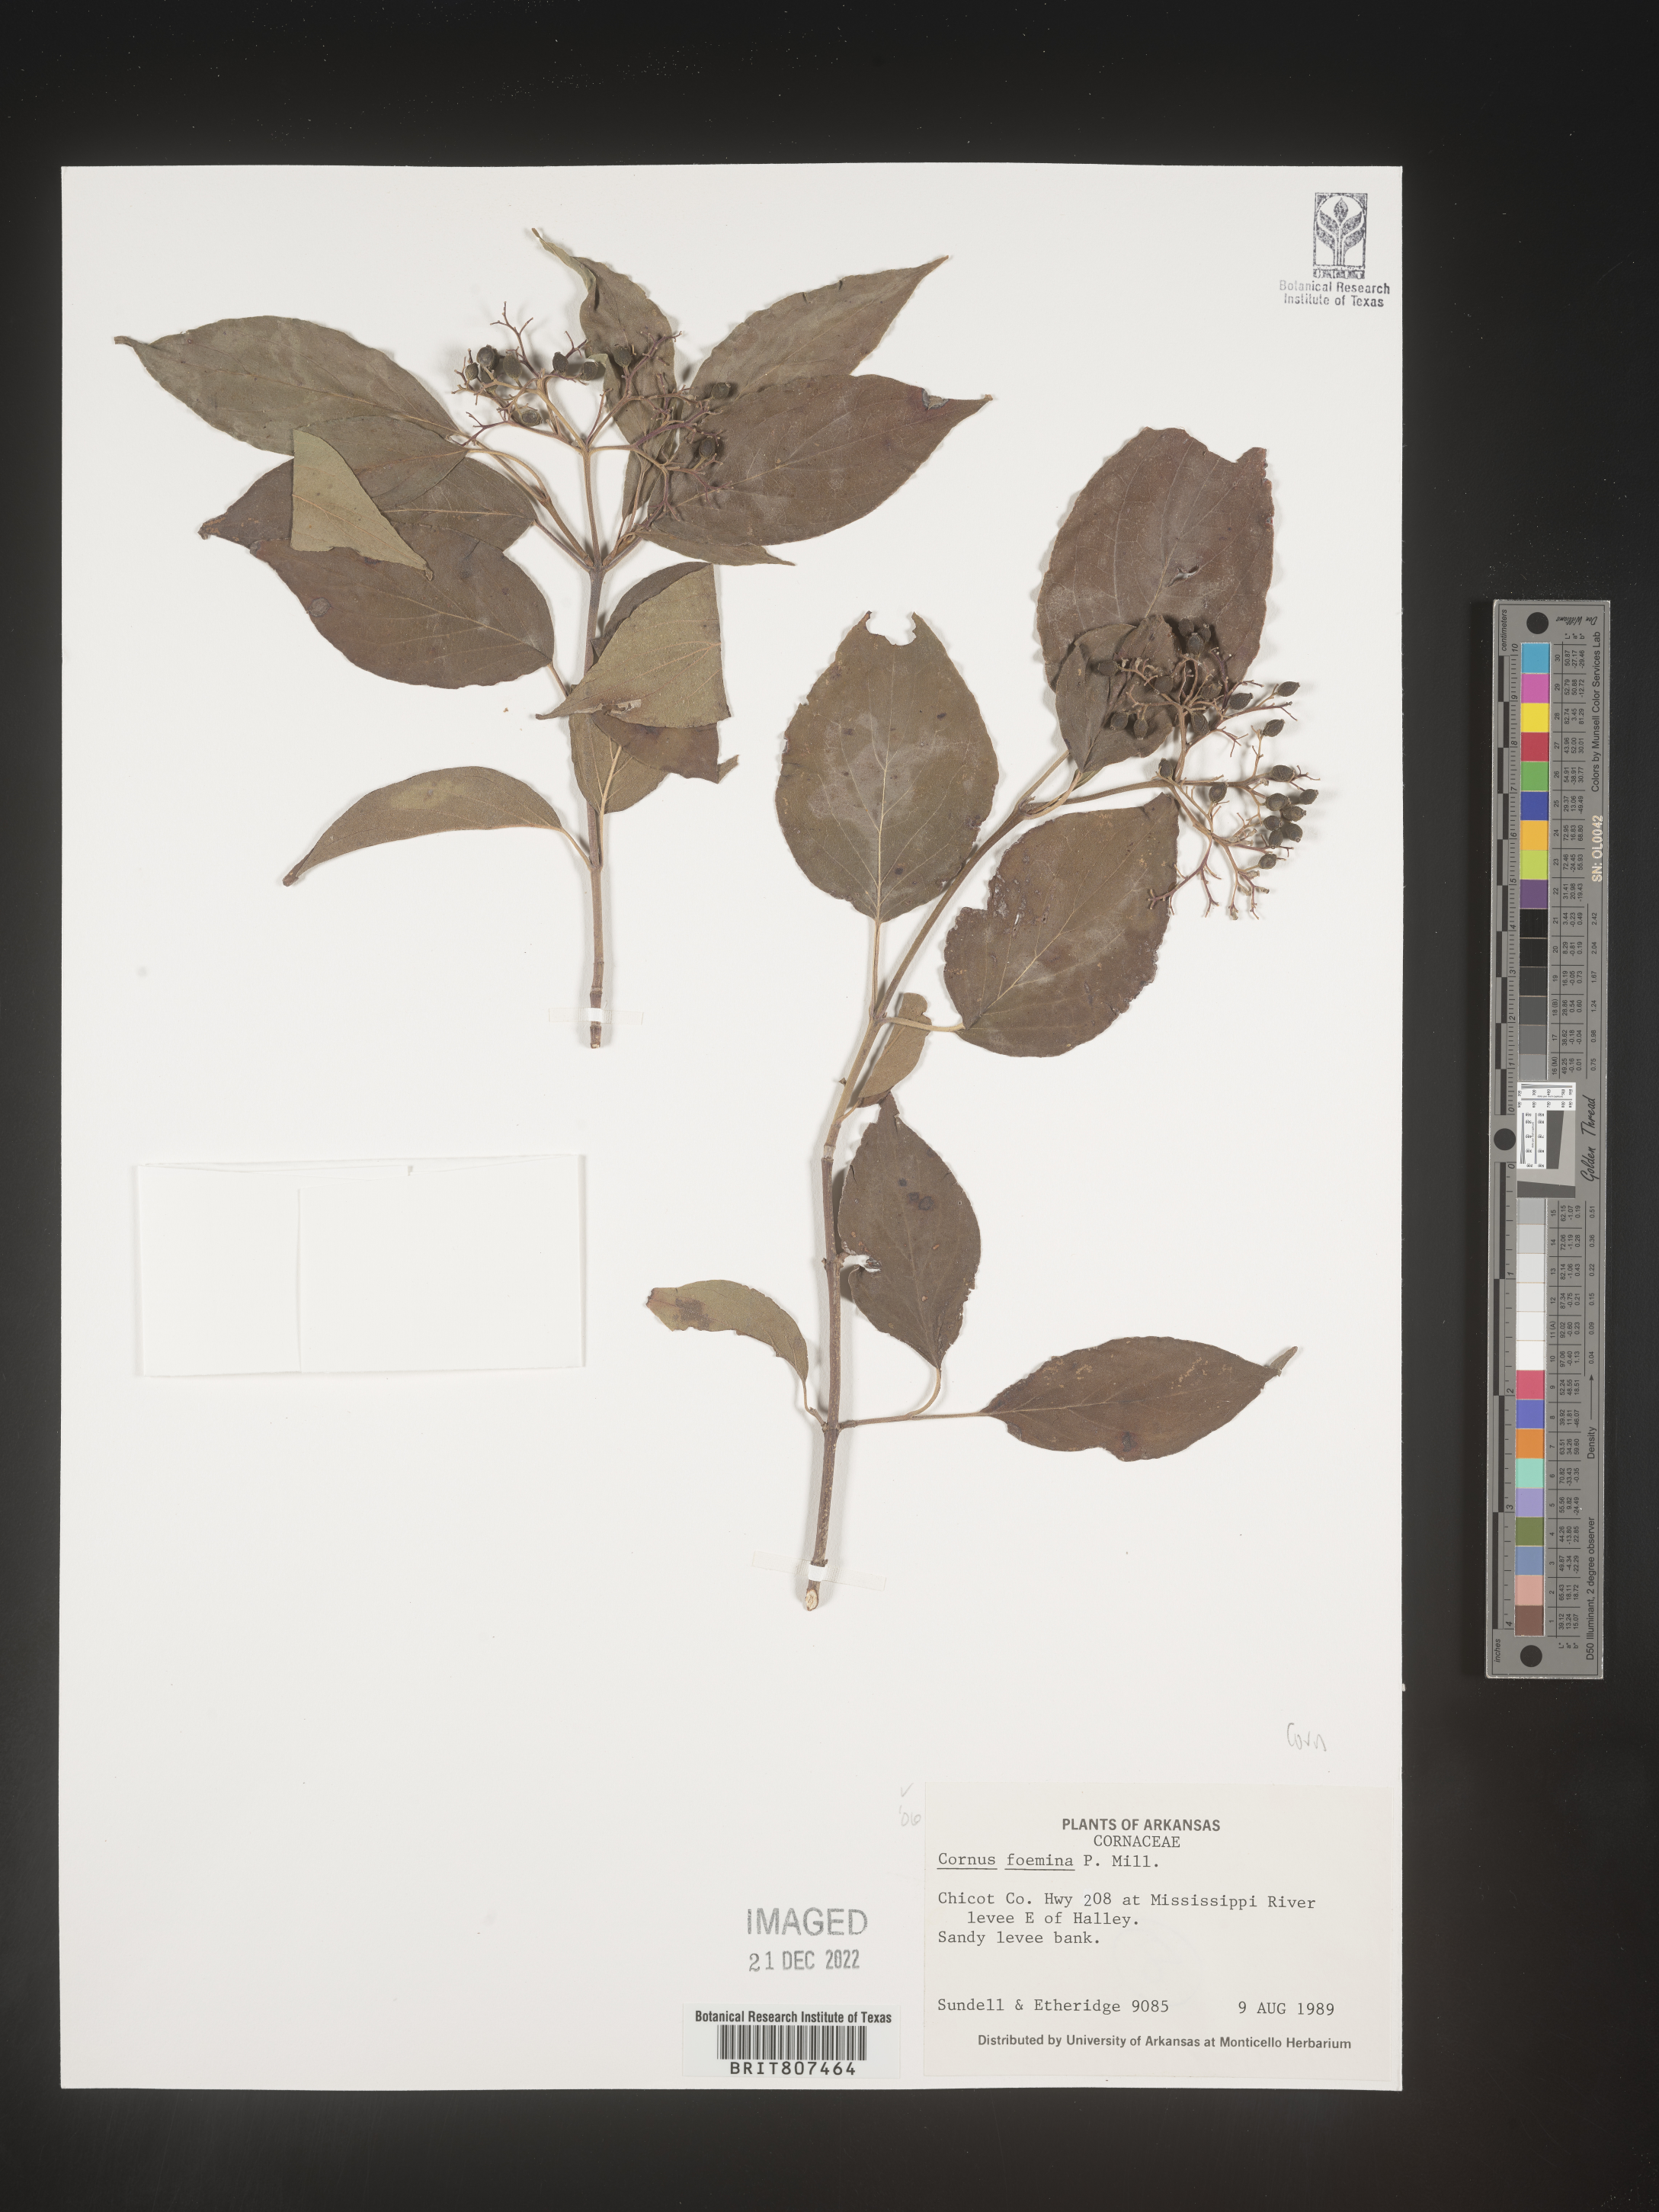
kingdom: Plantae
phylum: Tracheophyta
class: Magnoliopsida
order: Cornales
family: Cornaceae
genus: Cornus
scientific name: Cornus foemina
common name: Swamp dogwood
